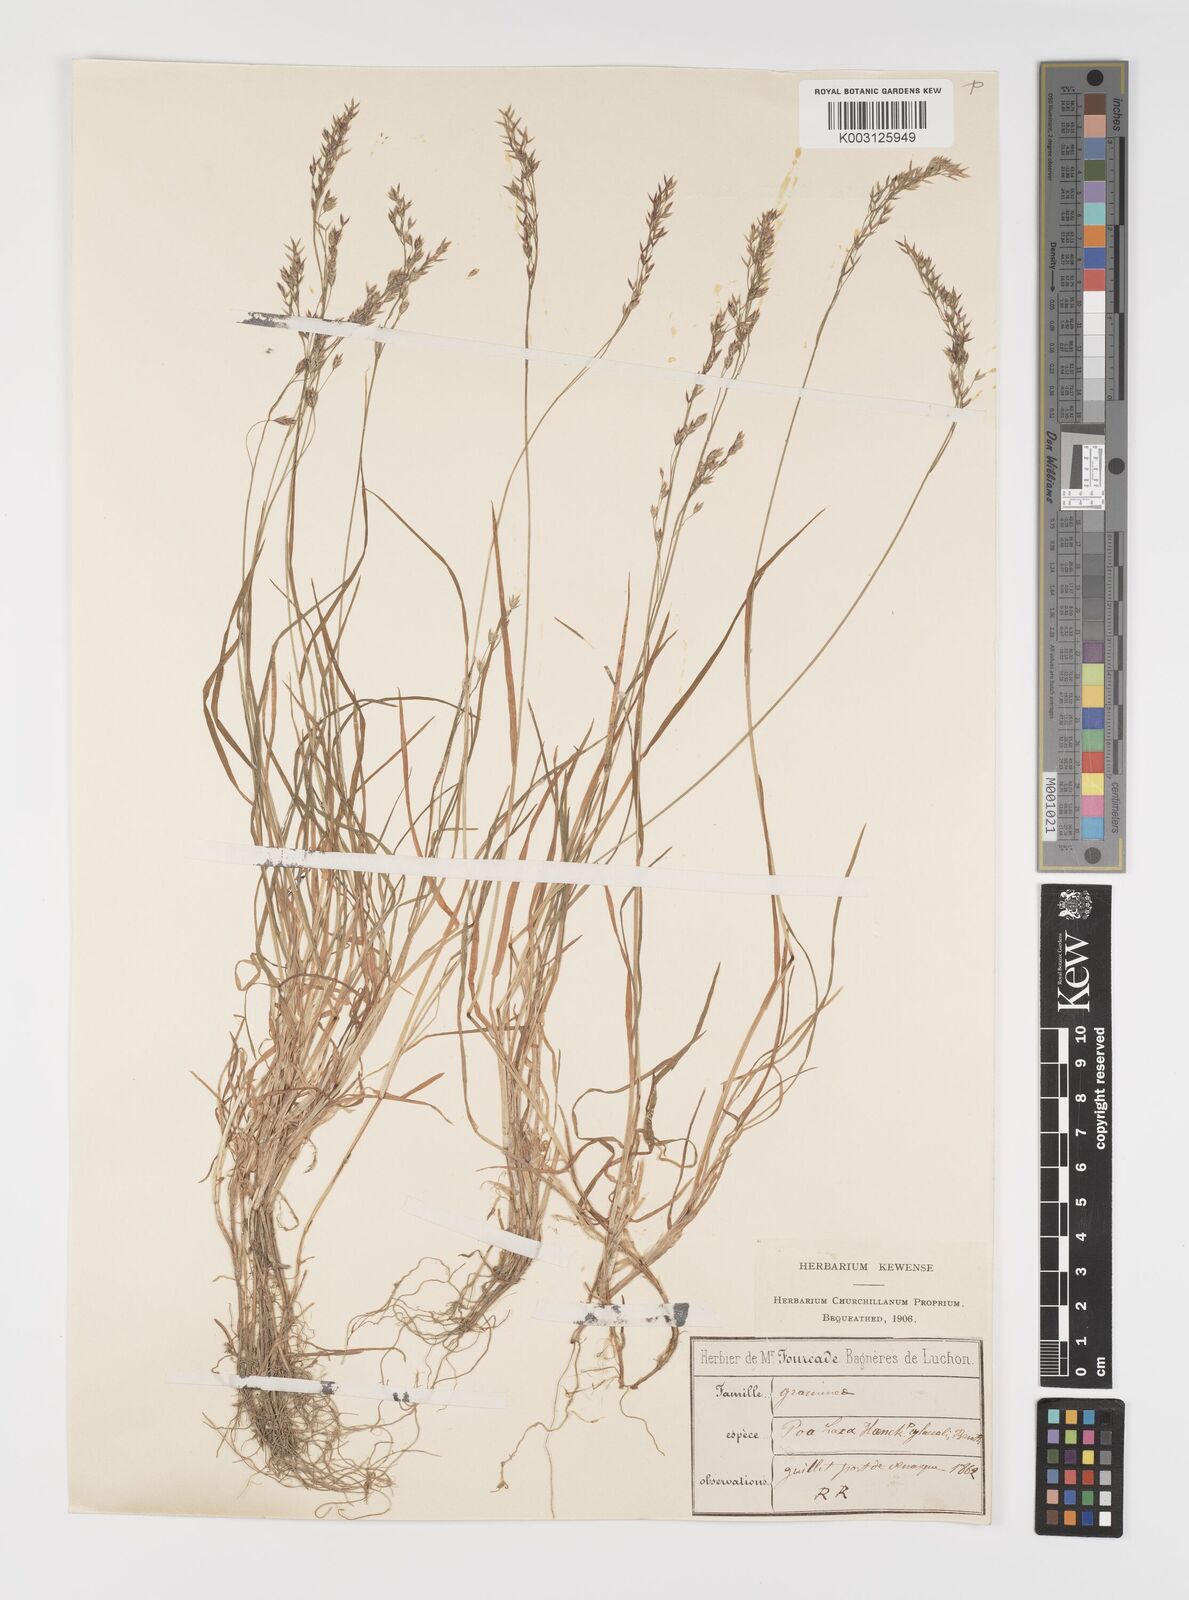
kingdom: Plantae
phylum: Tracheophyta
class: Liliopsida
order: Poales
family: Poaceae
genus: Poa
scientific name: Poa laxa
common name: Lax bluegrass
